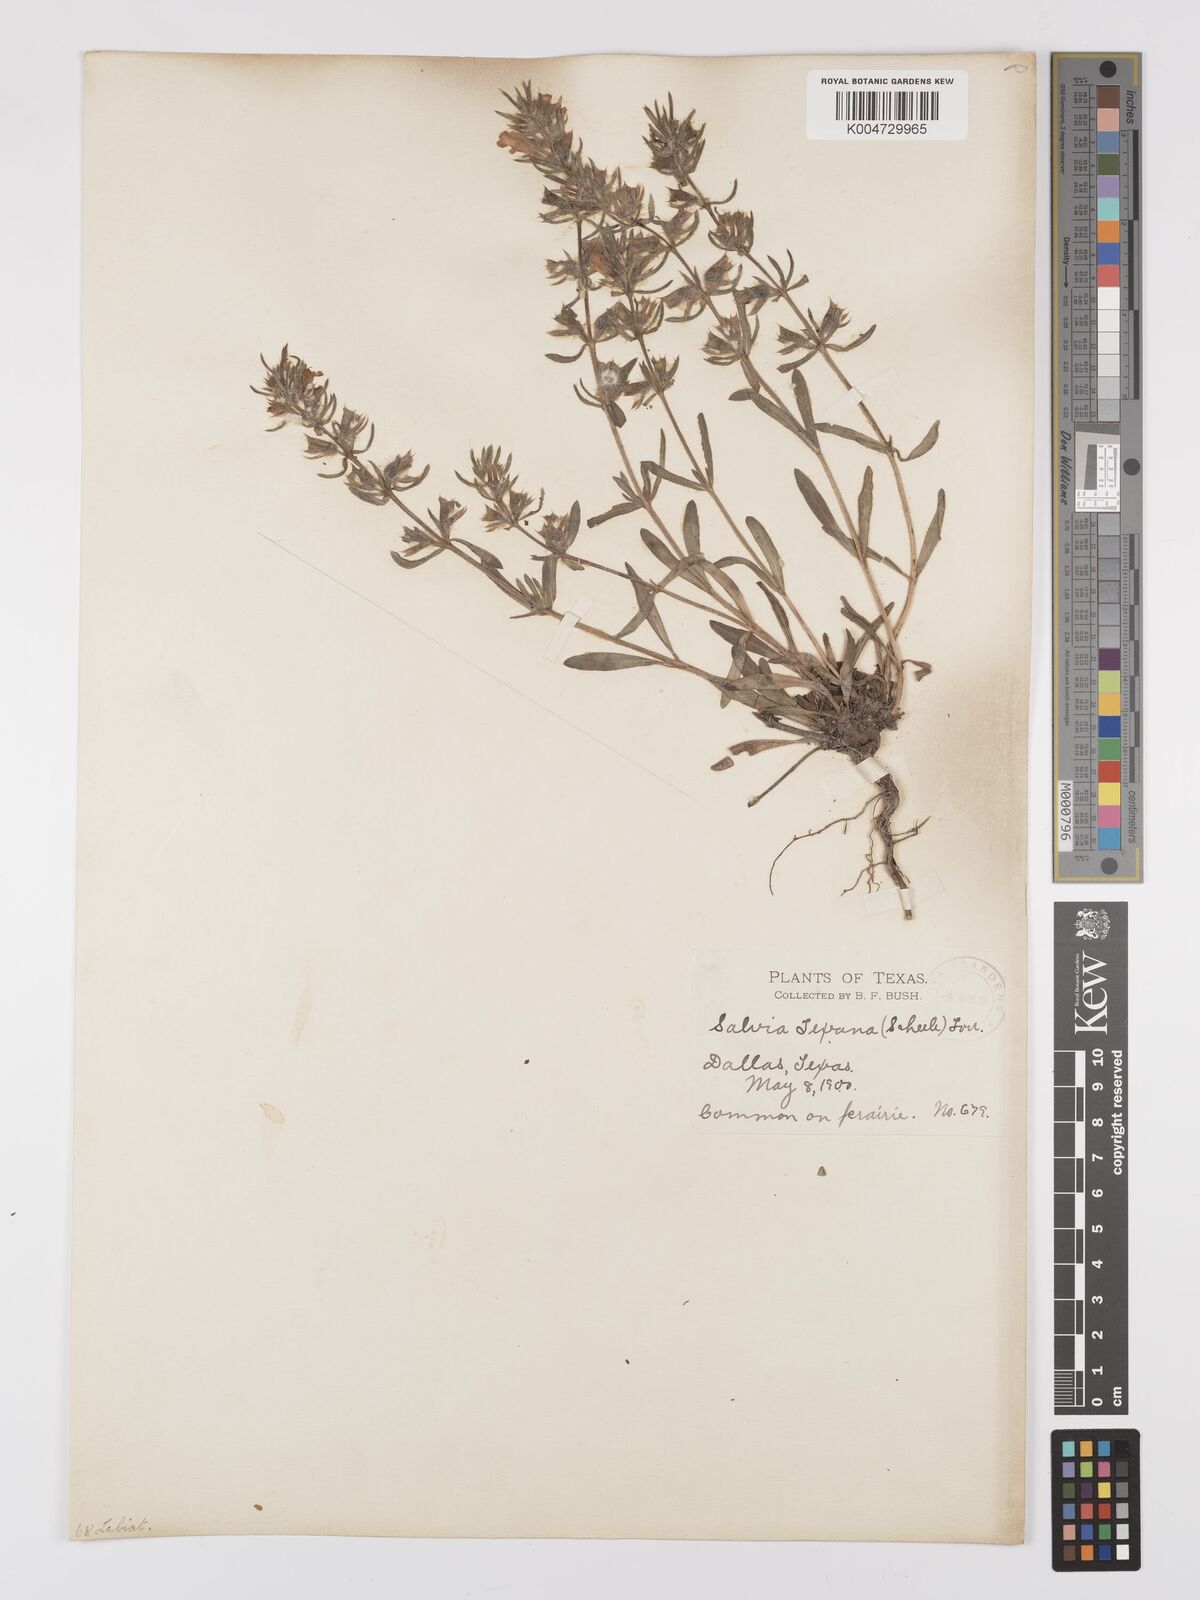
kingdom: Plantae
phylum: Tracheophyta
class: Magnoliopsida
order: Lamiales
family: Lamiaceae
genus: Salvia
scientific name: Salvia texana
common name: Texas sage
